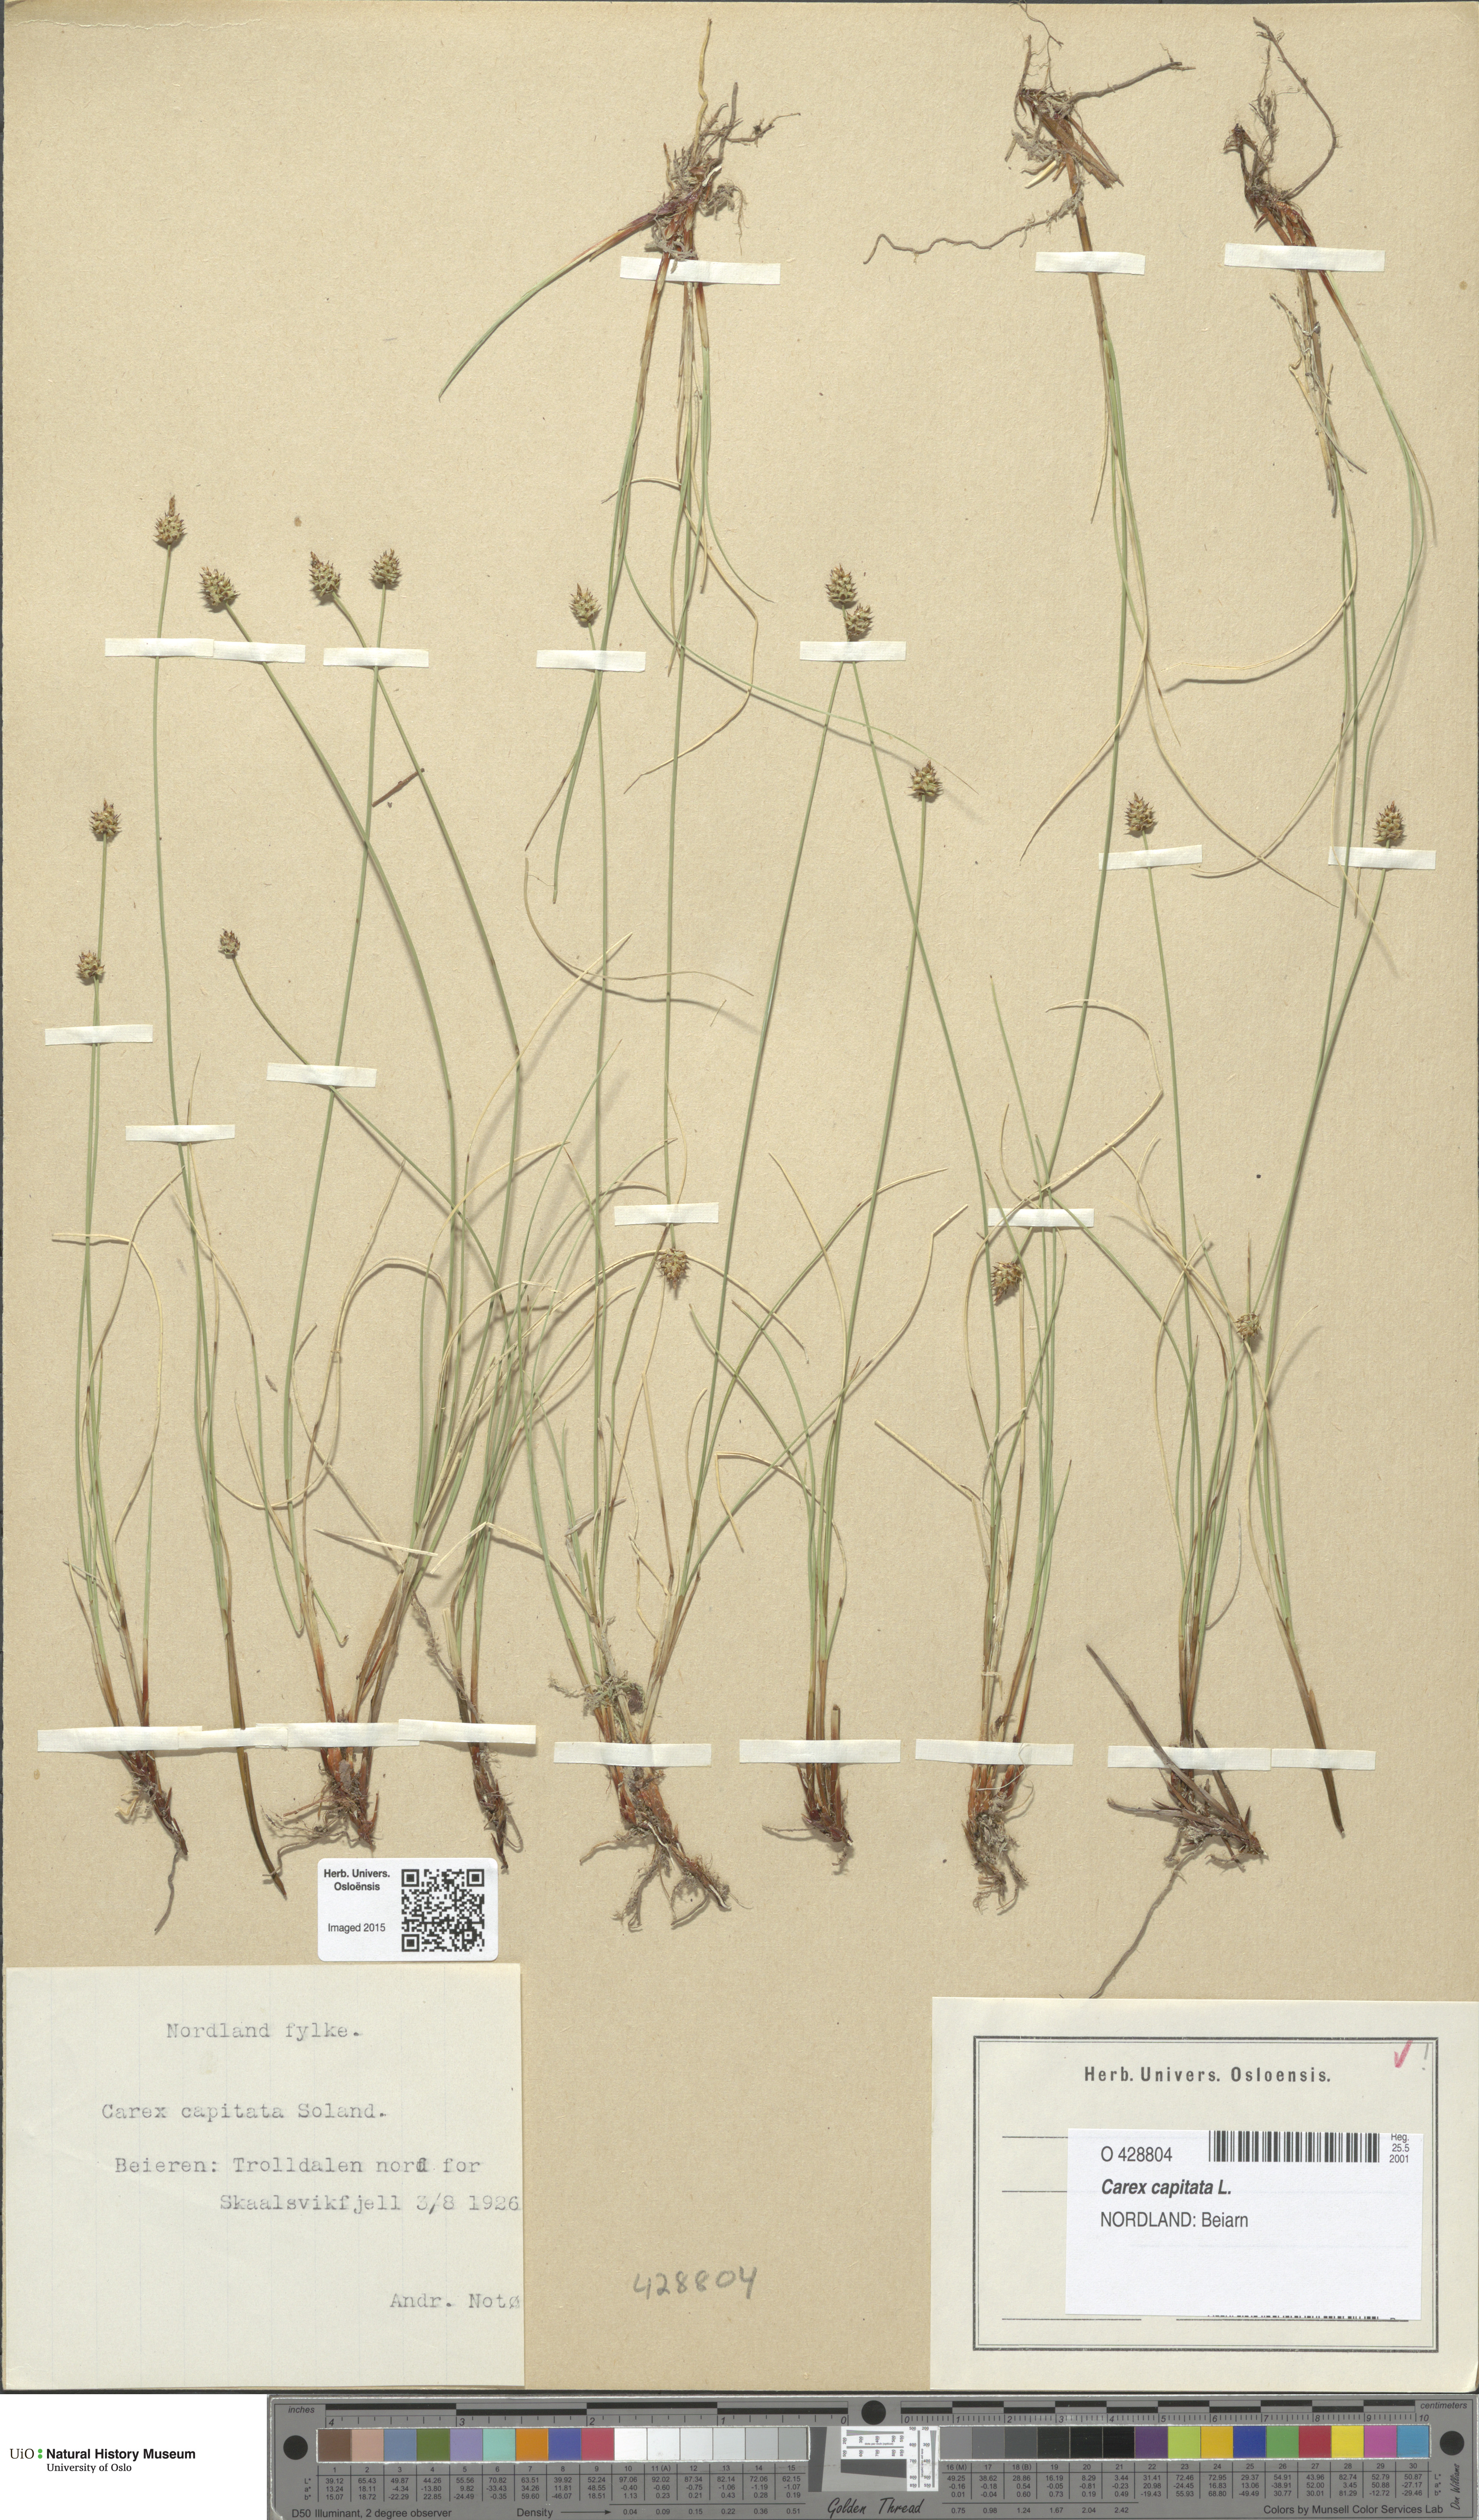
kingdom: Plantae
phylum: Tracheophyta
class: Liliopsida
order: Poales
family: Cyperaceae
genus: Carex
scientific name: Carex capitata
